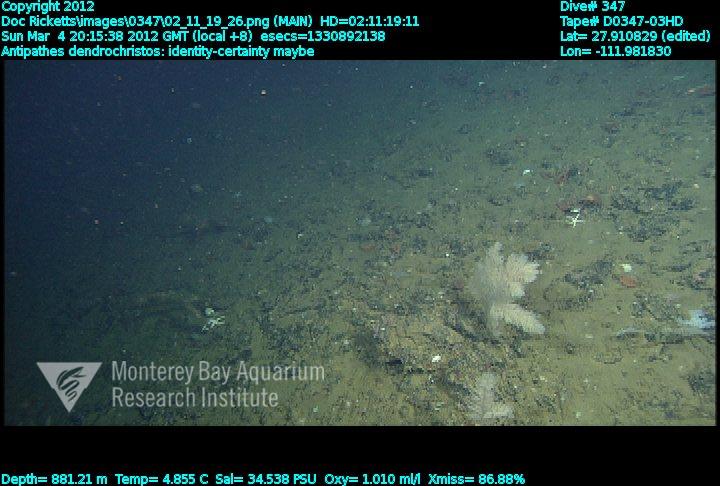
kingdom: Animalia
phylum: Cnidaria
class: Anthozoa
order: Antipatharia
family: Cladopathidae
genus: Trissopathes
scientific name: Trissopathes
